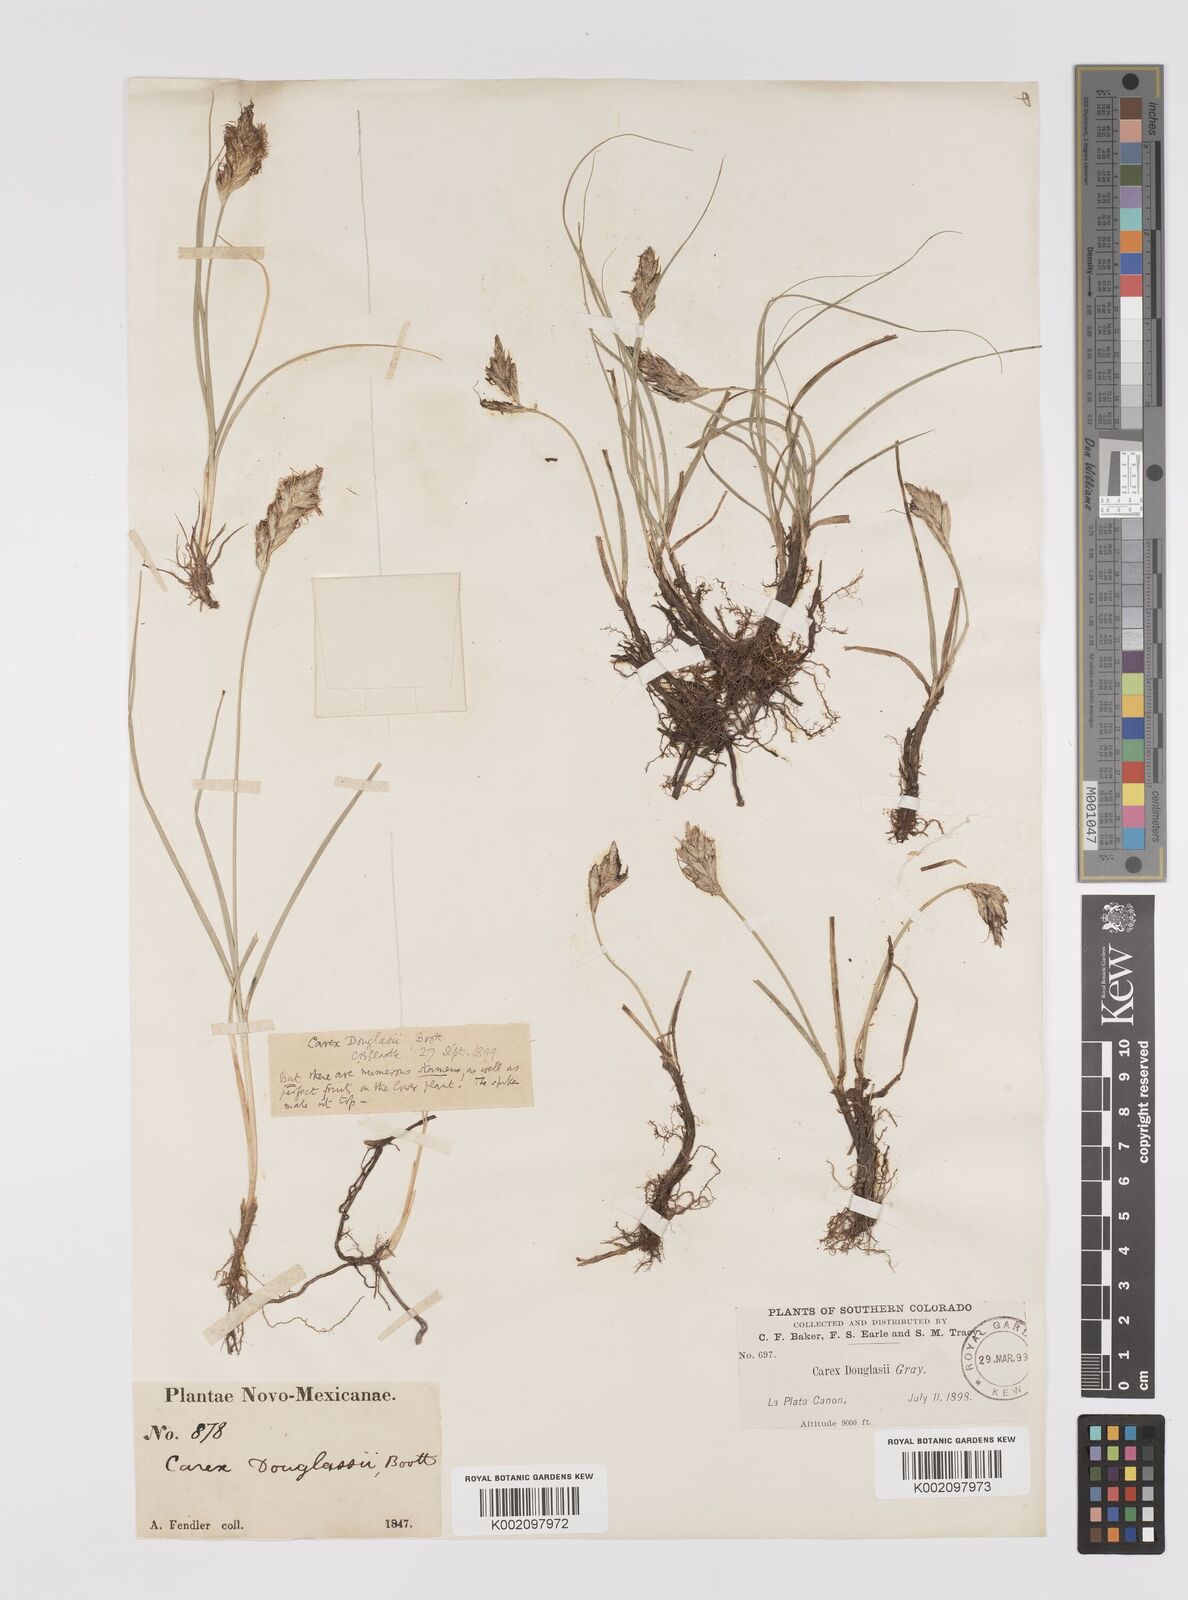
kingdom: Plantae
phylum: Tracheophyta
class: Liliopsida
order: Poales
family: Cyperaceae
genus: Carex
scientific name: Carex douglasii
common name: Douglas' sedge
